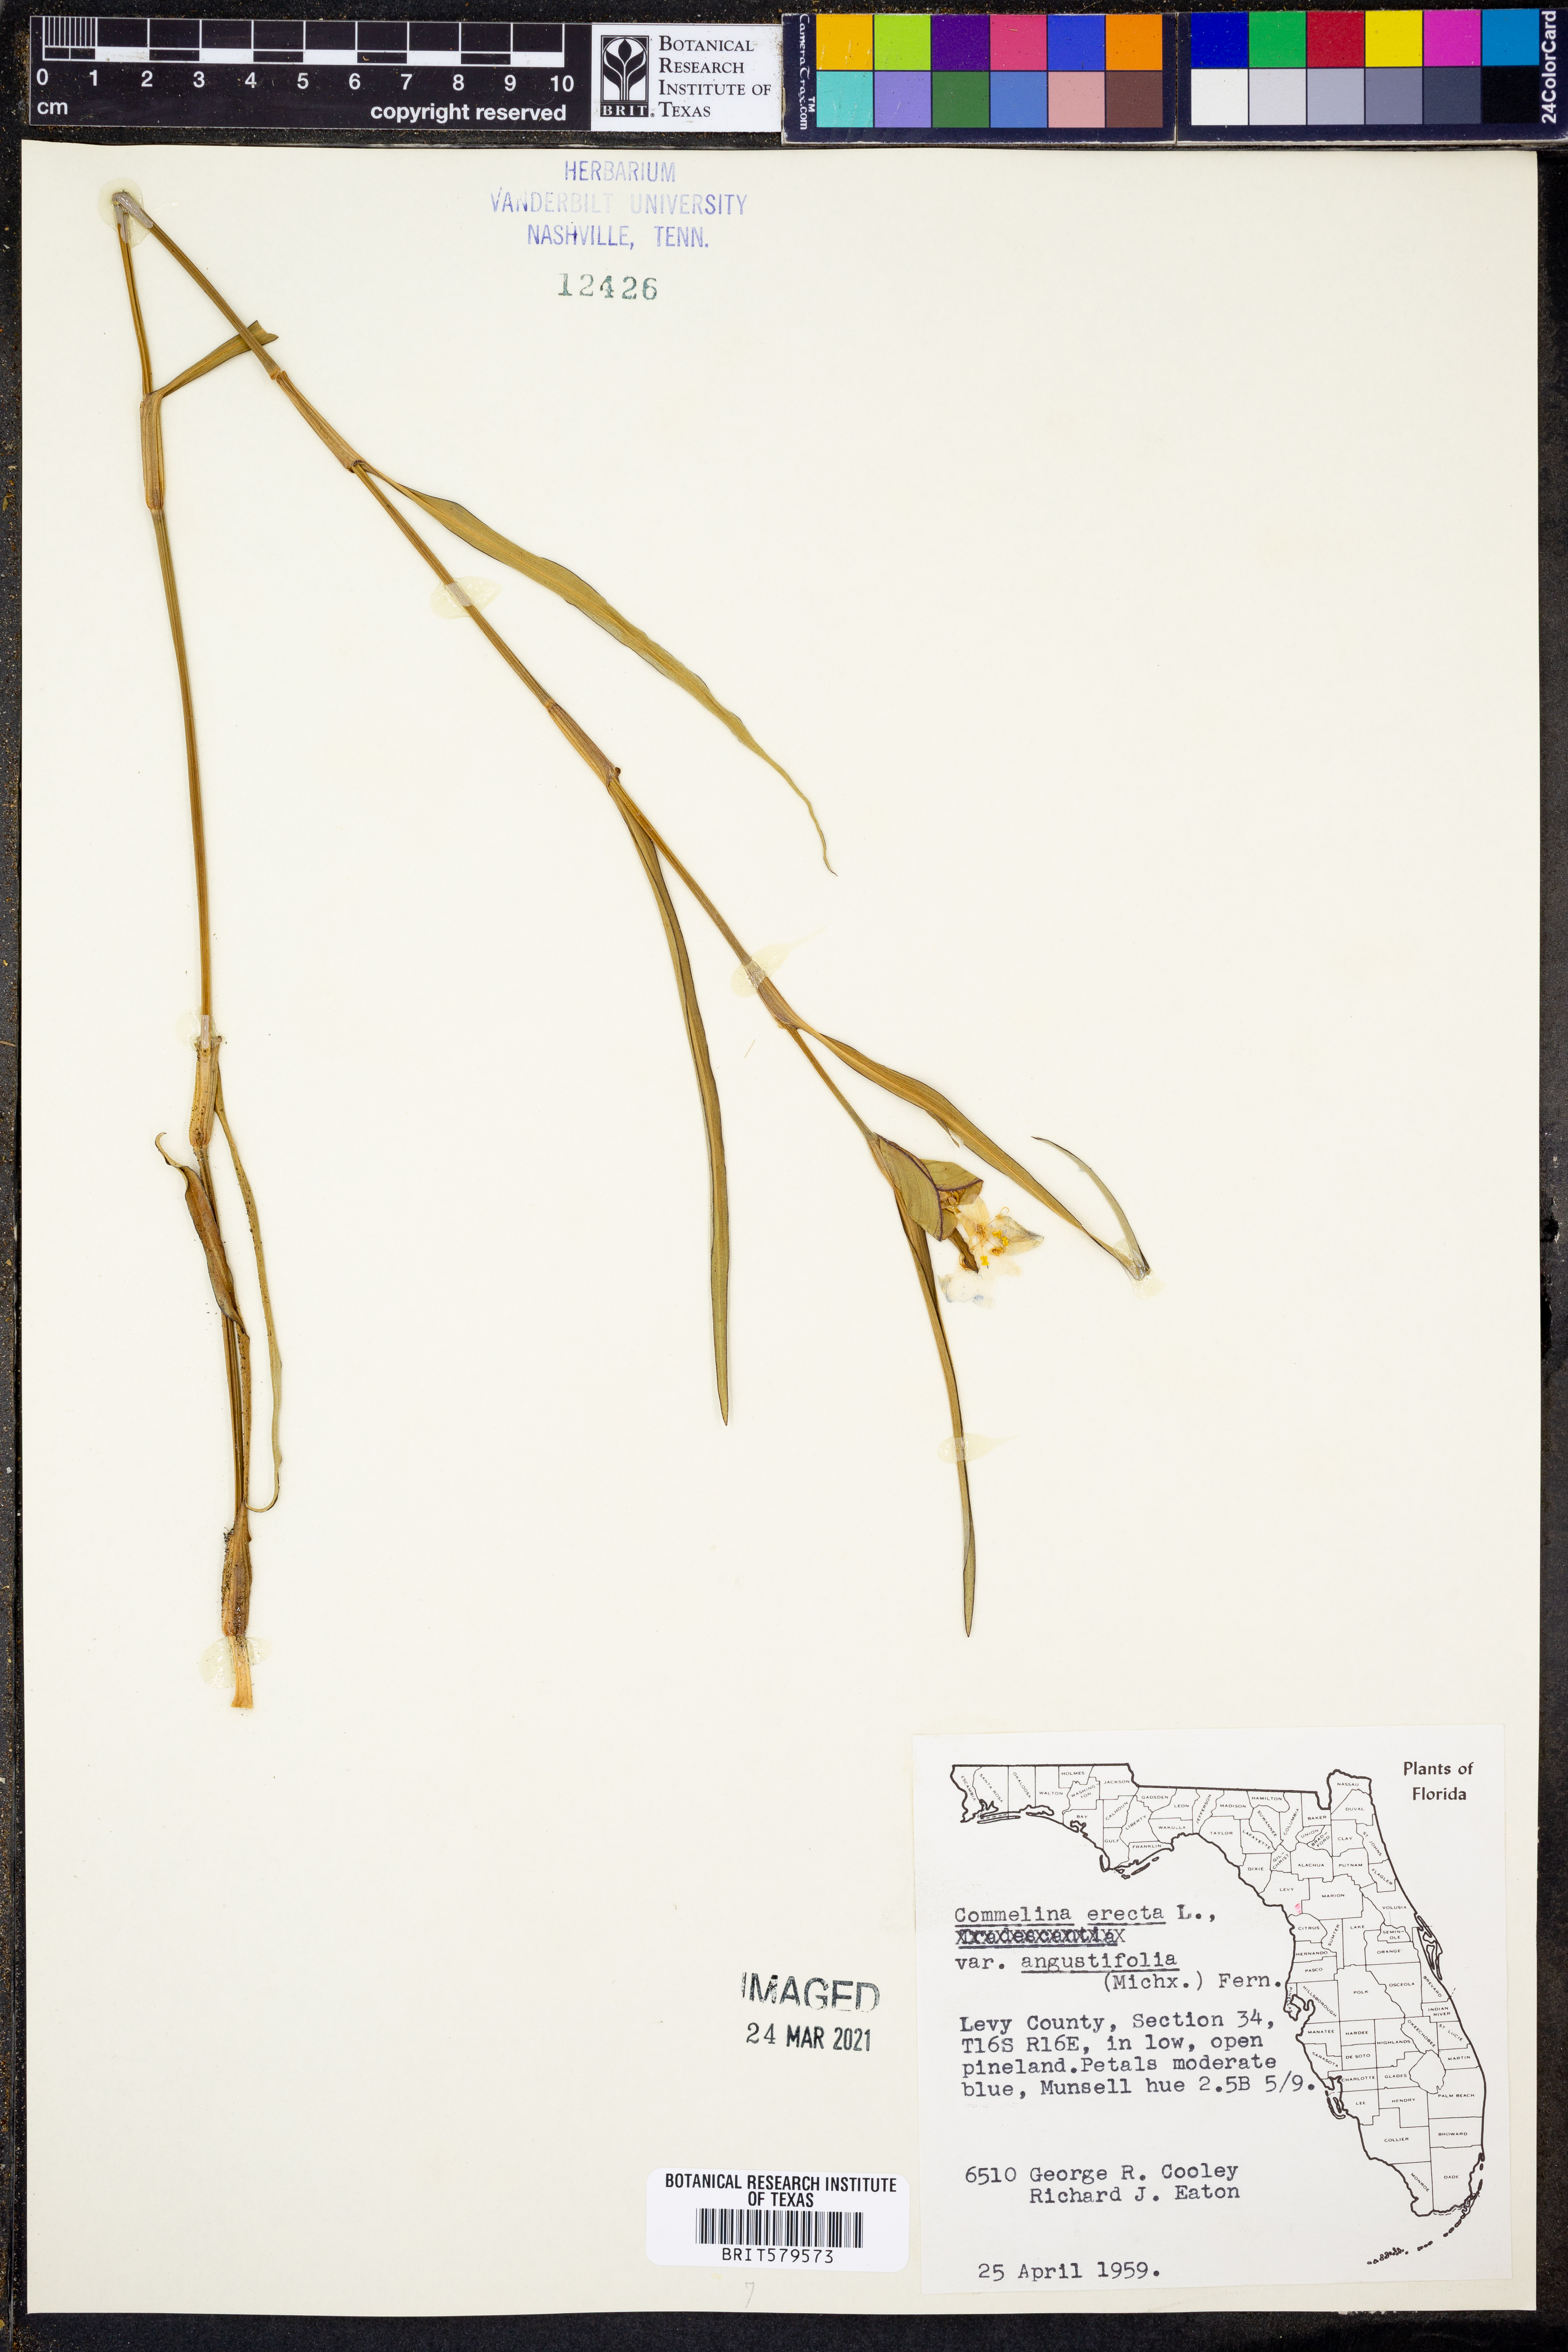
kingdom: Plantae
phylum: Tracheophyta
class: Liliopsida
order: Commelinales
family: Commelinaceae
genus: Commelina
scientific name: Commelina erecta
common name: Blousel blommetjie
